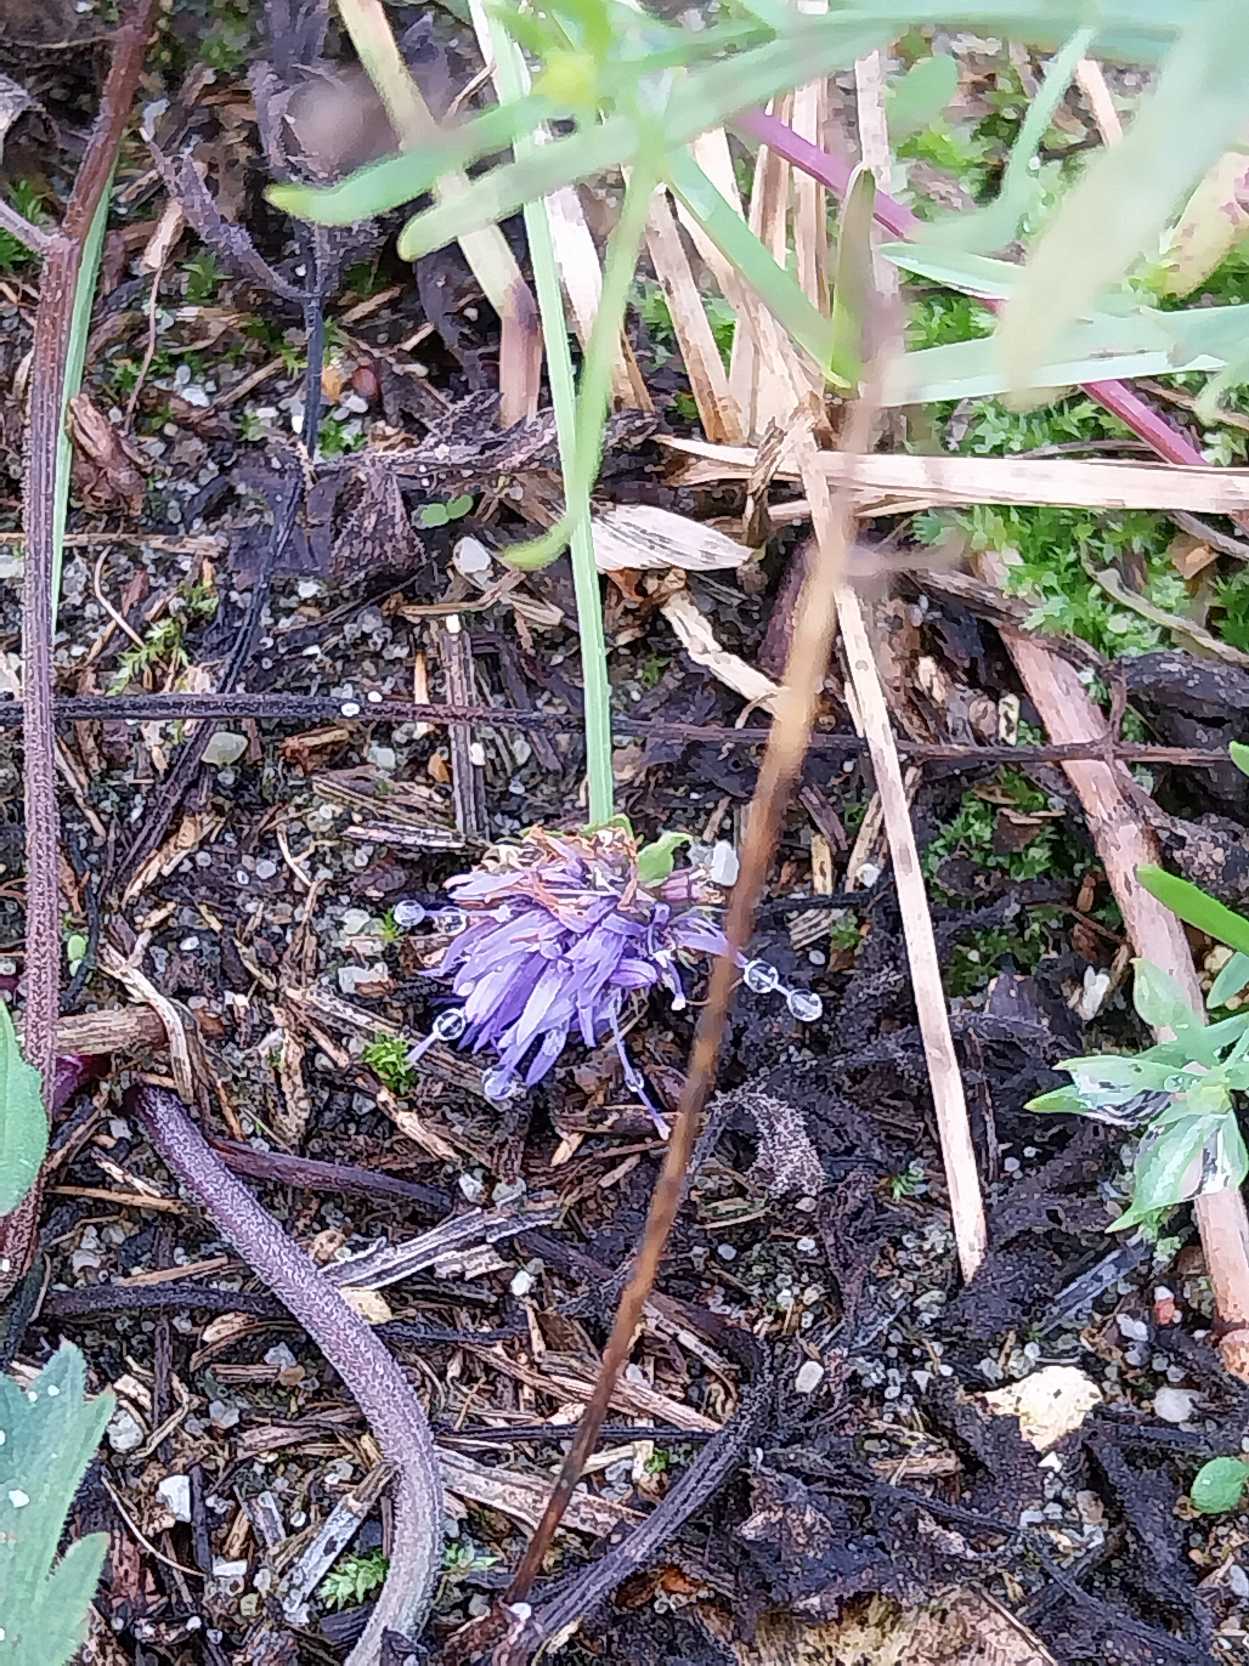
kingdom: Plantae
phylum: Tracheophyta
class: Magnoliopsida
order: Asterales
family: Campanulaceae
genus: Jasione
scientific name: Jasione montana
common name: Blåmunke
